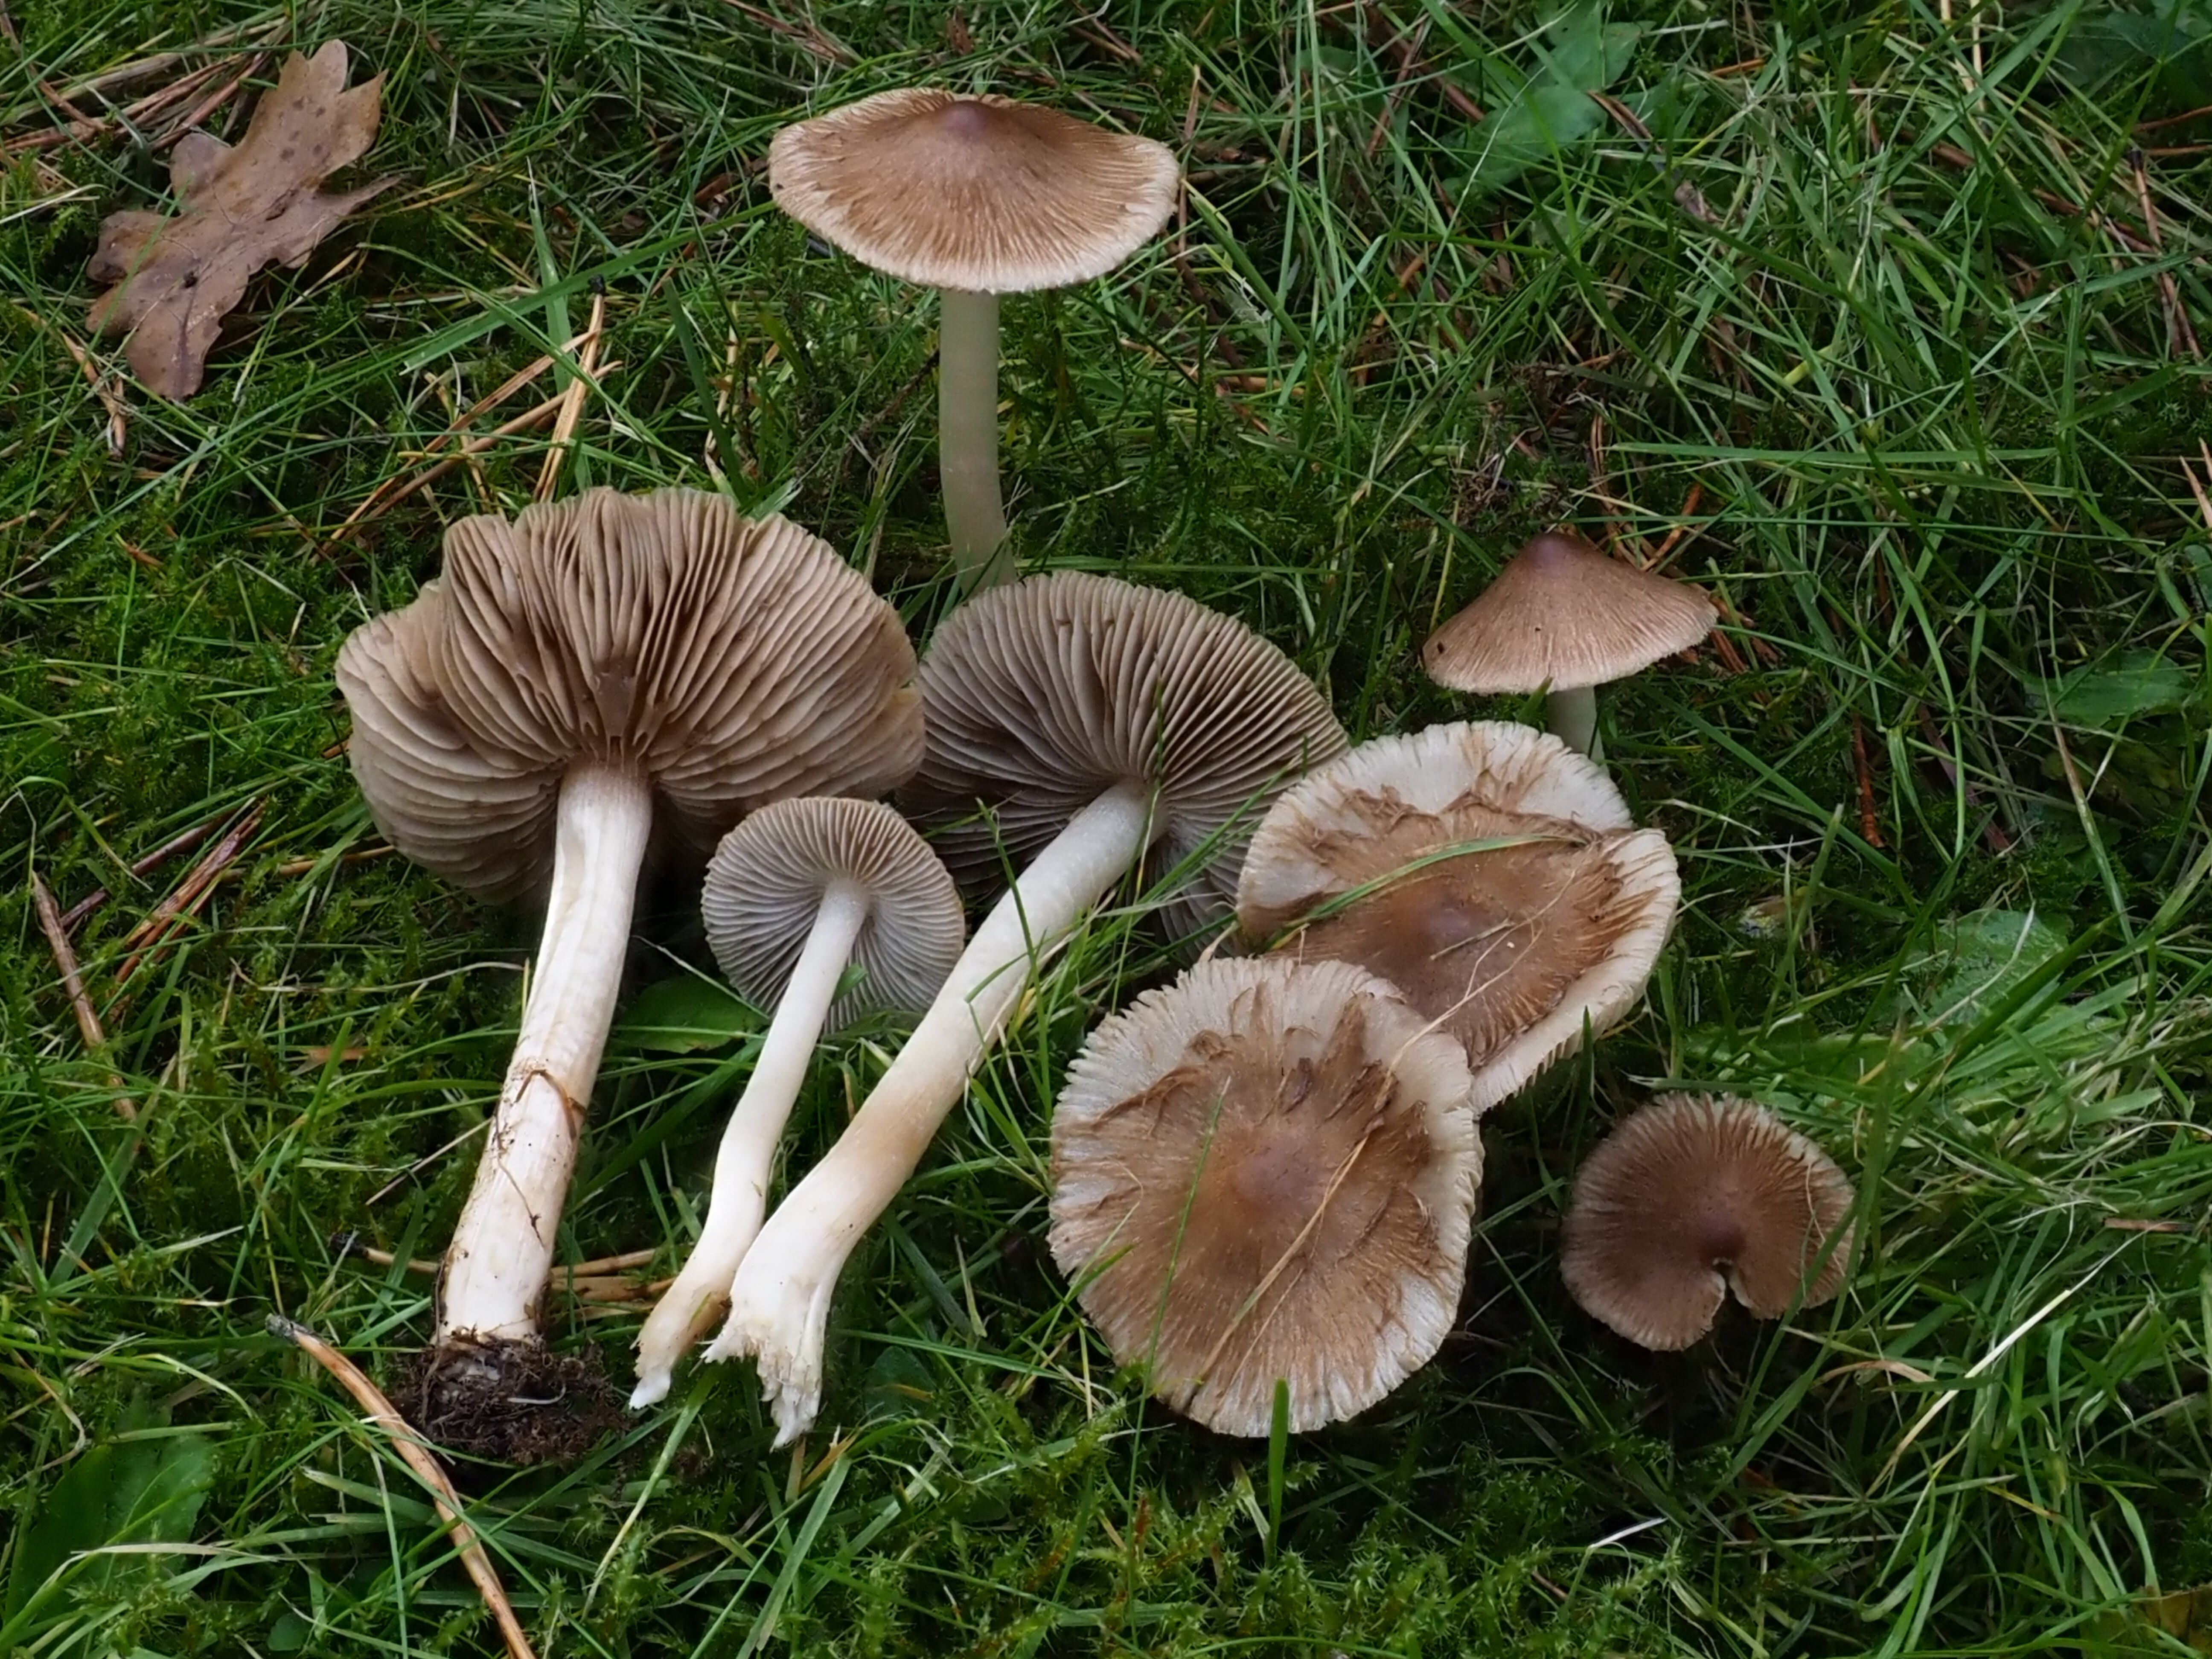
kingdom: Fungi
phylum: Basidiomycota
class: Agaricomycetes
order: Agaricales
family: Inocybaceae
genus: Inocybe
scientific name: Inocybe fuscidula
